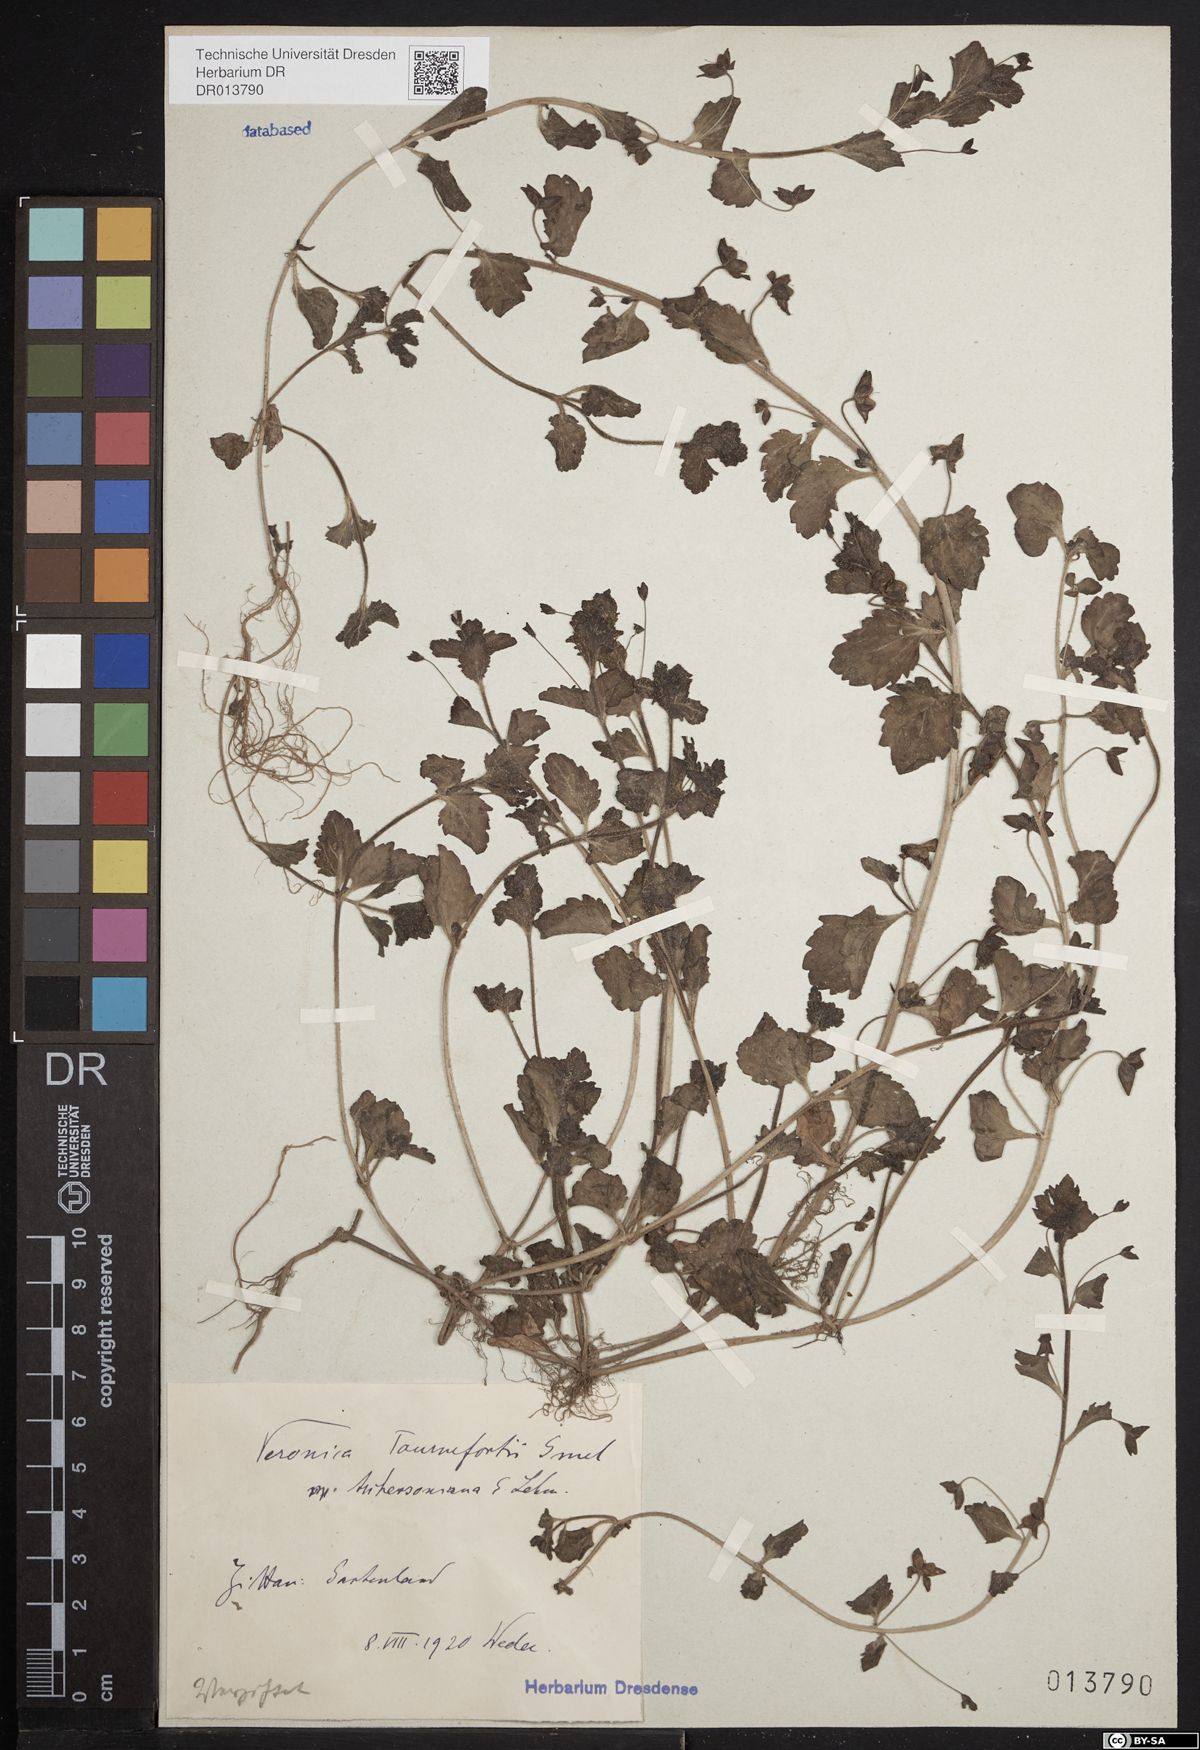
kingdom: Plantae
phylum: Tracheophyta
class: Magnoliopsida
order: Lamiales
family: Plantaginaceae
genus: Veronica
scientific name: Veronica persica
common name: Common field-speedwell
